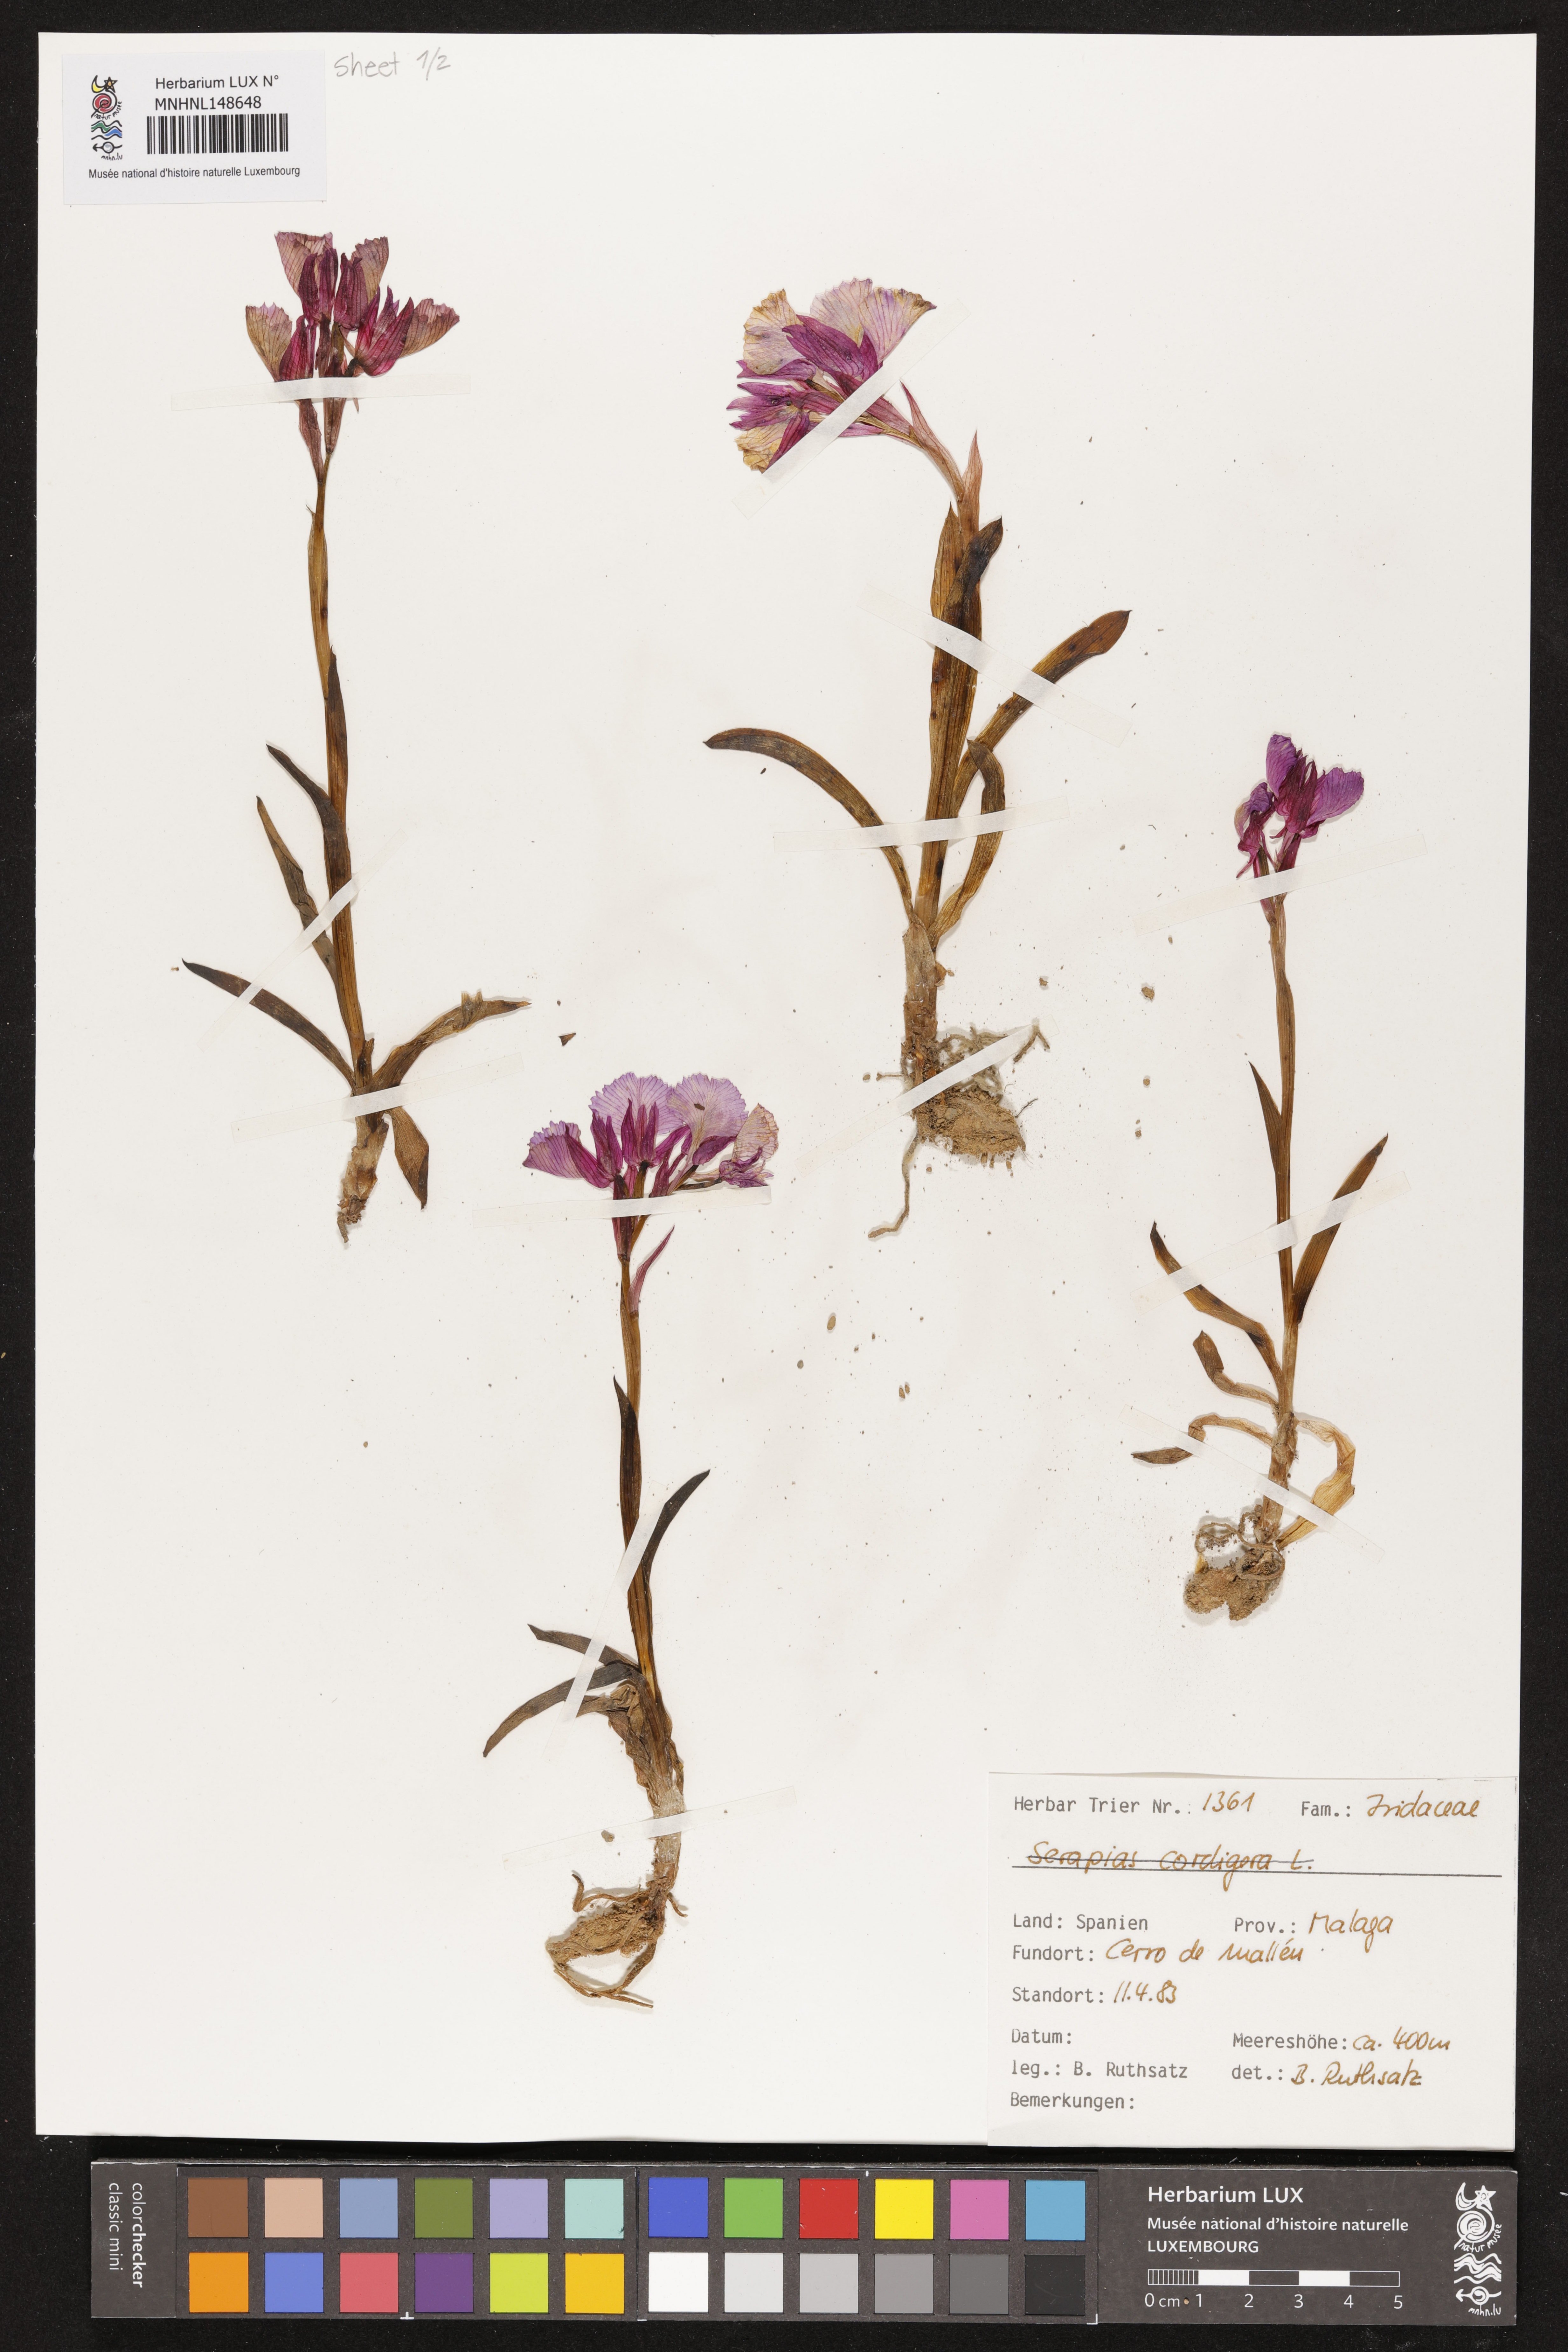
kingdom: Plantae
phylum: Tracheophyta
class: Liliopsida
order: Asparagales
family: Orchidaceae
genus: Serapias
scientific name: Serapias cordigera
